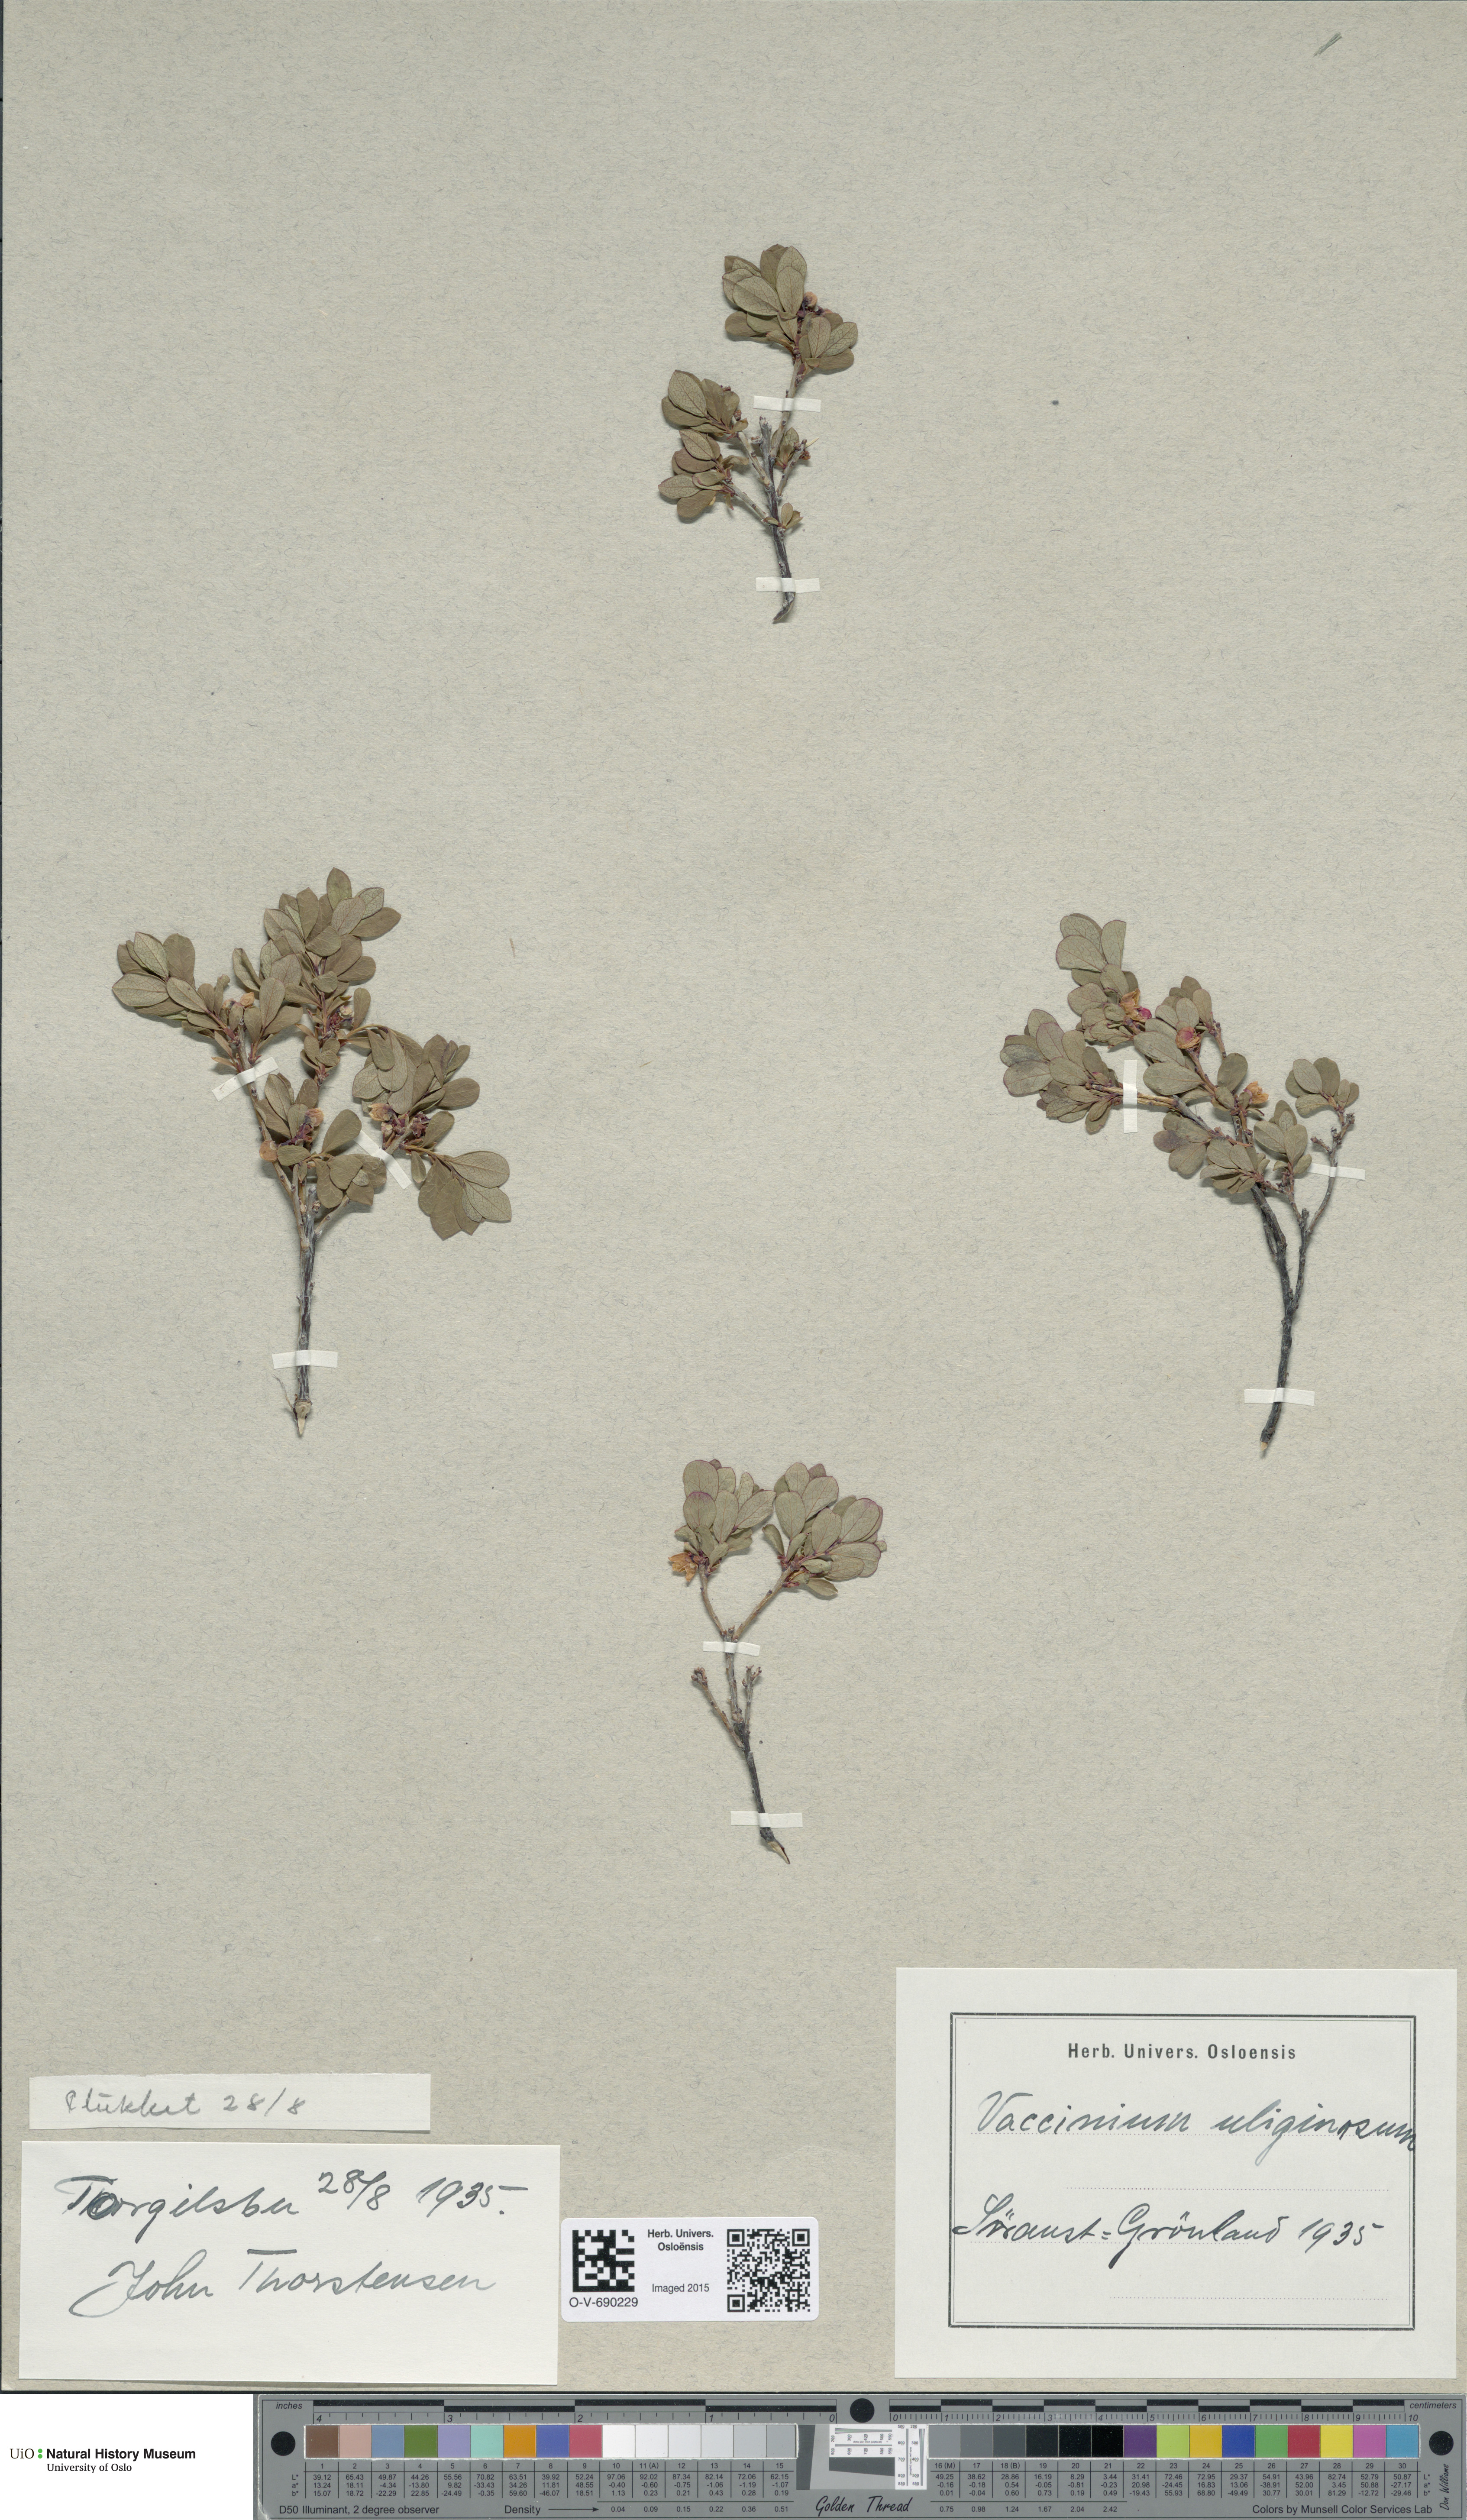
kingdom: Plantae
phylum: Tracheophyta
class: Magnoliopsida
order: Ericales
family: Ericaceae
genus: Vaccinium
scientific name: Vaccinium uliginosum
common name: Bog bilberry
